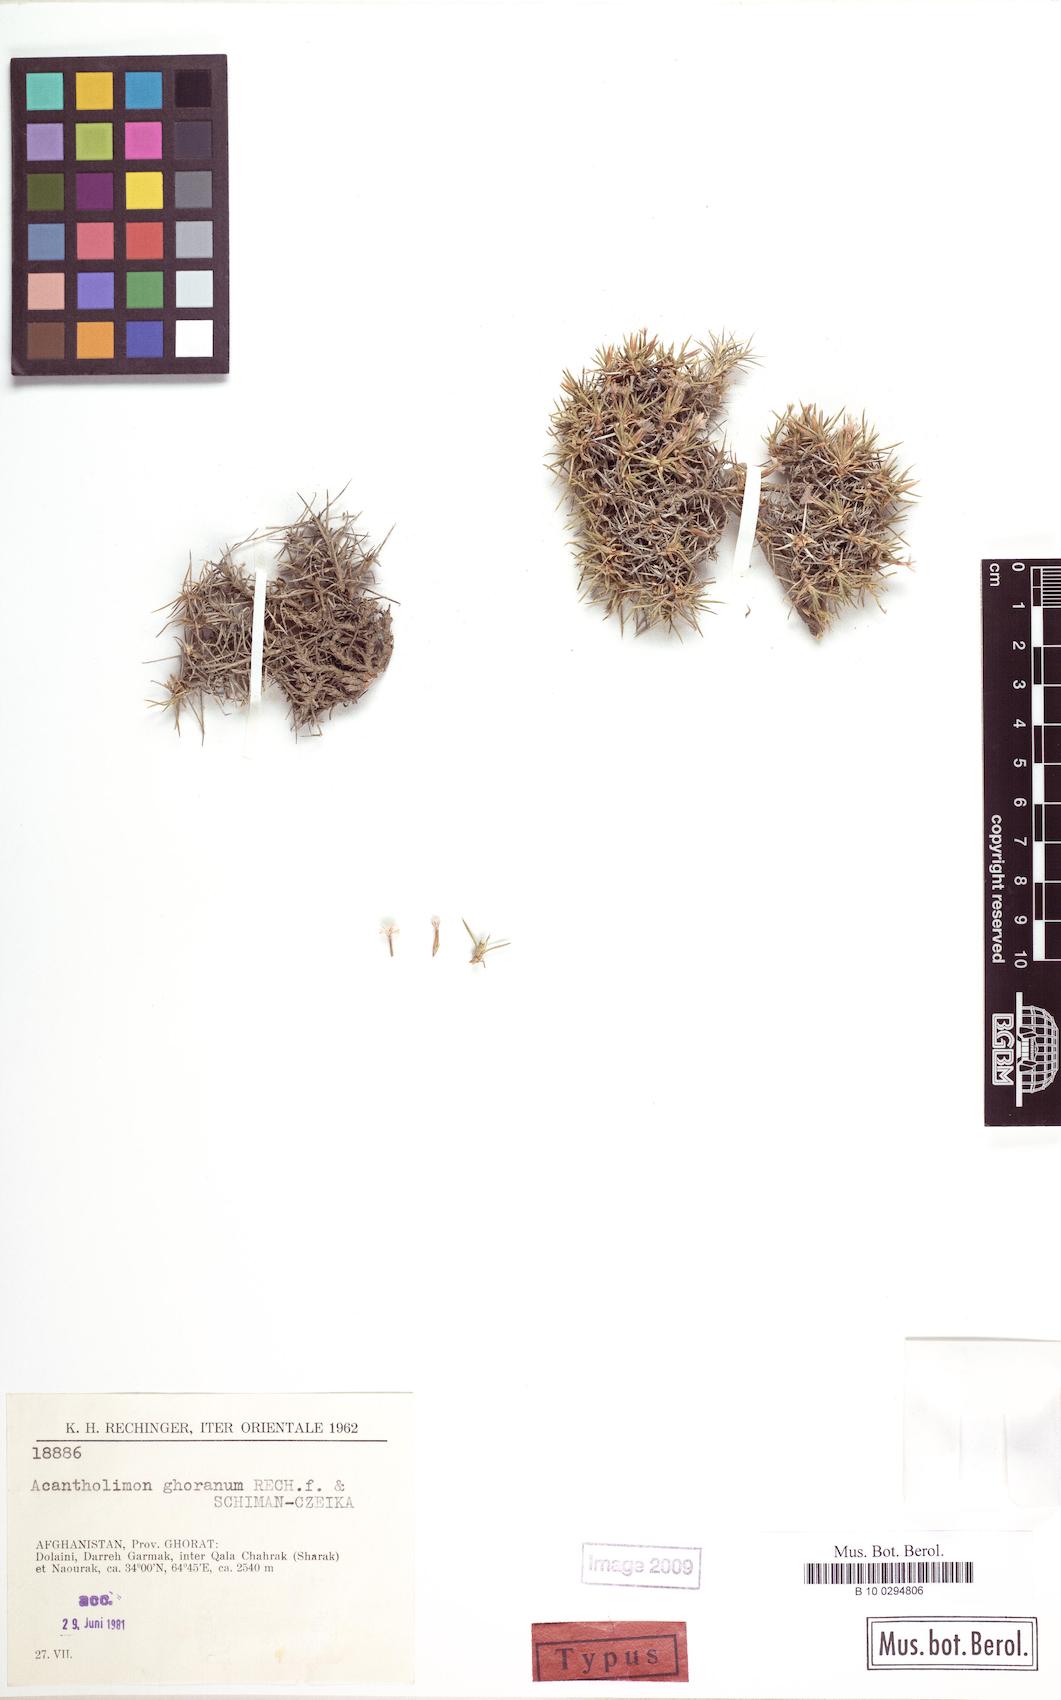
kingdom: Plantae
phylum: Tracheophyta
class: Magnoliopsida
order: Caryophyllales
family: Plumbaginaceae
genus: Acantholimon
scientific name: Acantholimon ghoranum
